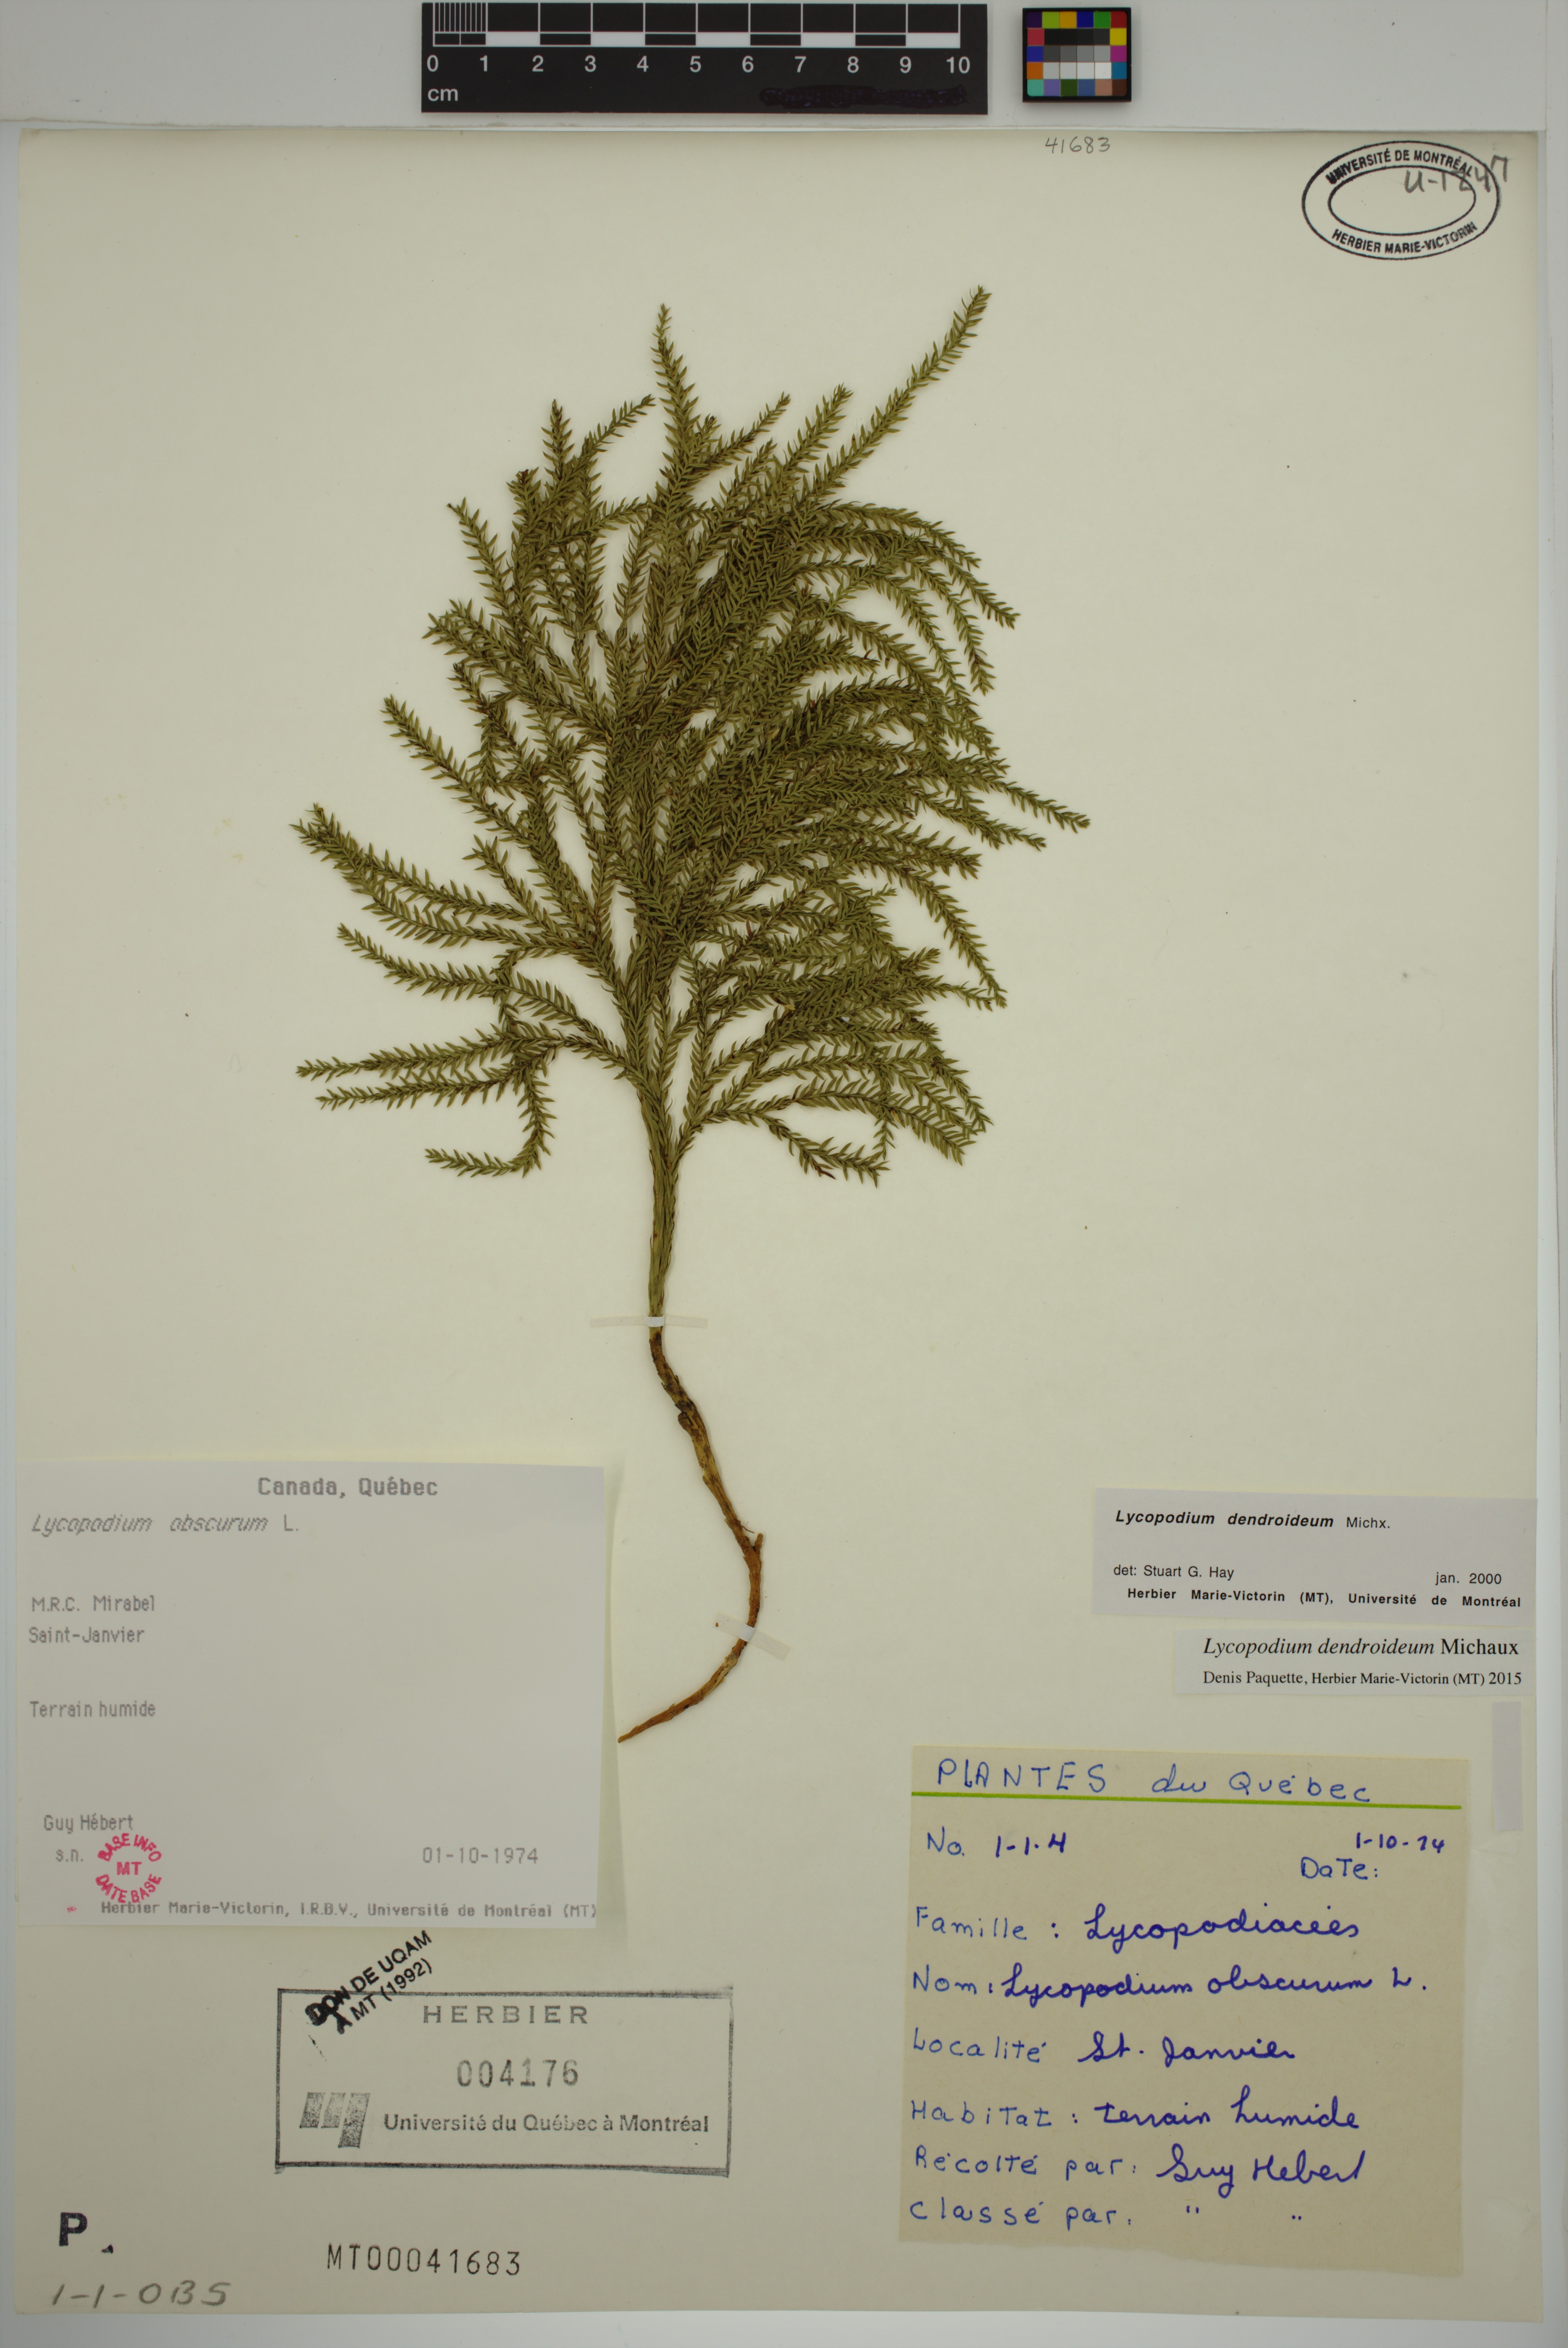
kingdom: Plantae
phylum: Tracheophyta
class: Lycopodiopsida
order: Lycopodiales
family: Lycopodiaceae
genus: Dendrolycopodium
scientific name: Dendrolycopodium dendroideum
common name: Northern tree-clubmoss
